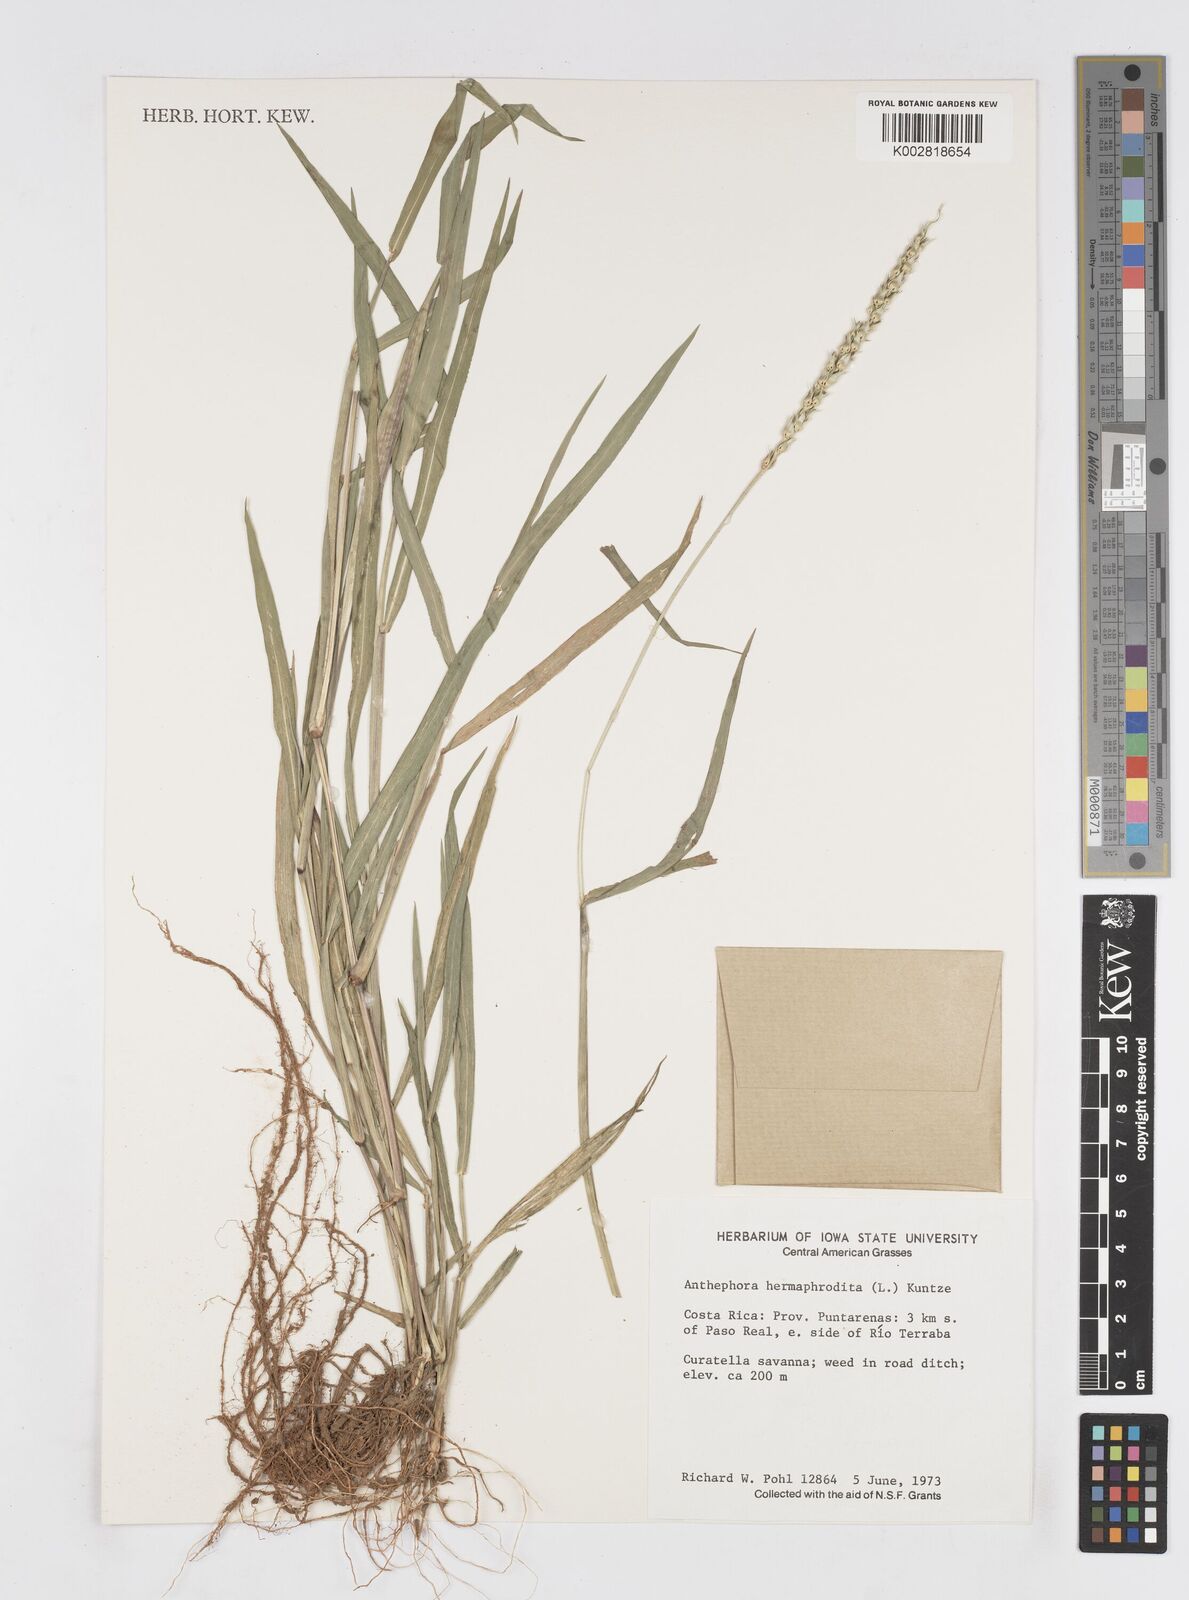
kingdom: Plantae
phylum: Tracheophyta
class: Liliopsida
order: Poales
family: Poaceae
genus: Anthephora
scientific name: Anthephora hermaphrodita
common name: Oldfield grass
